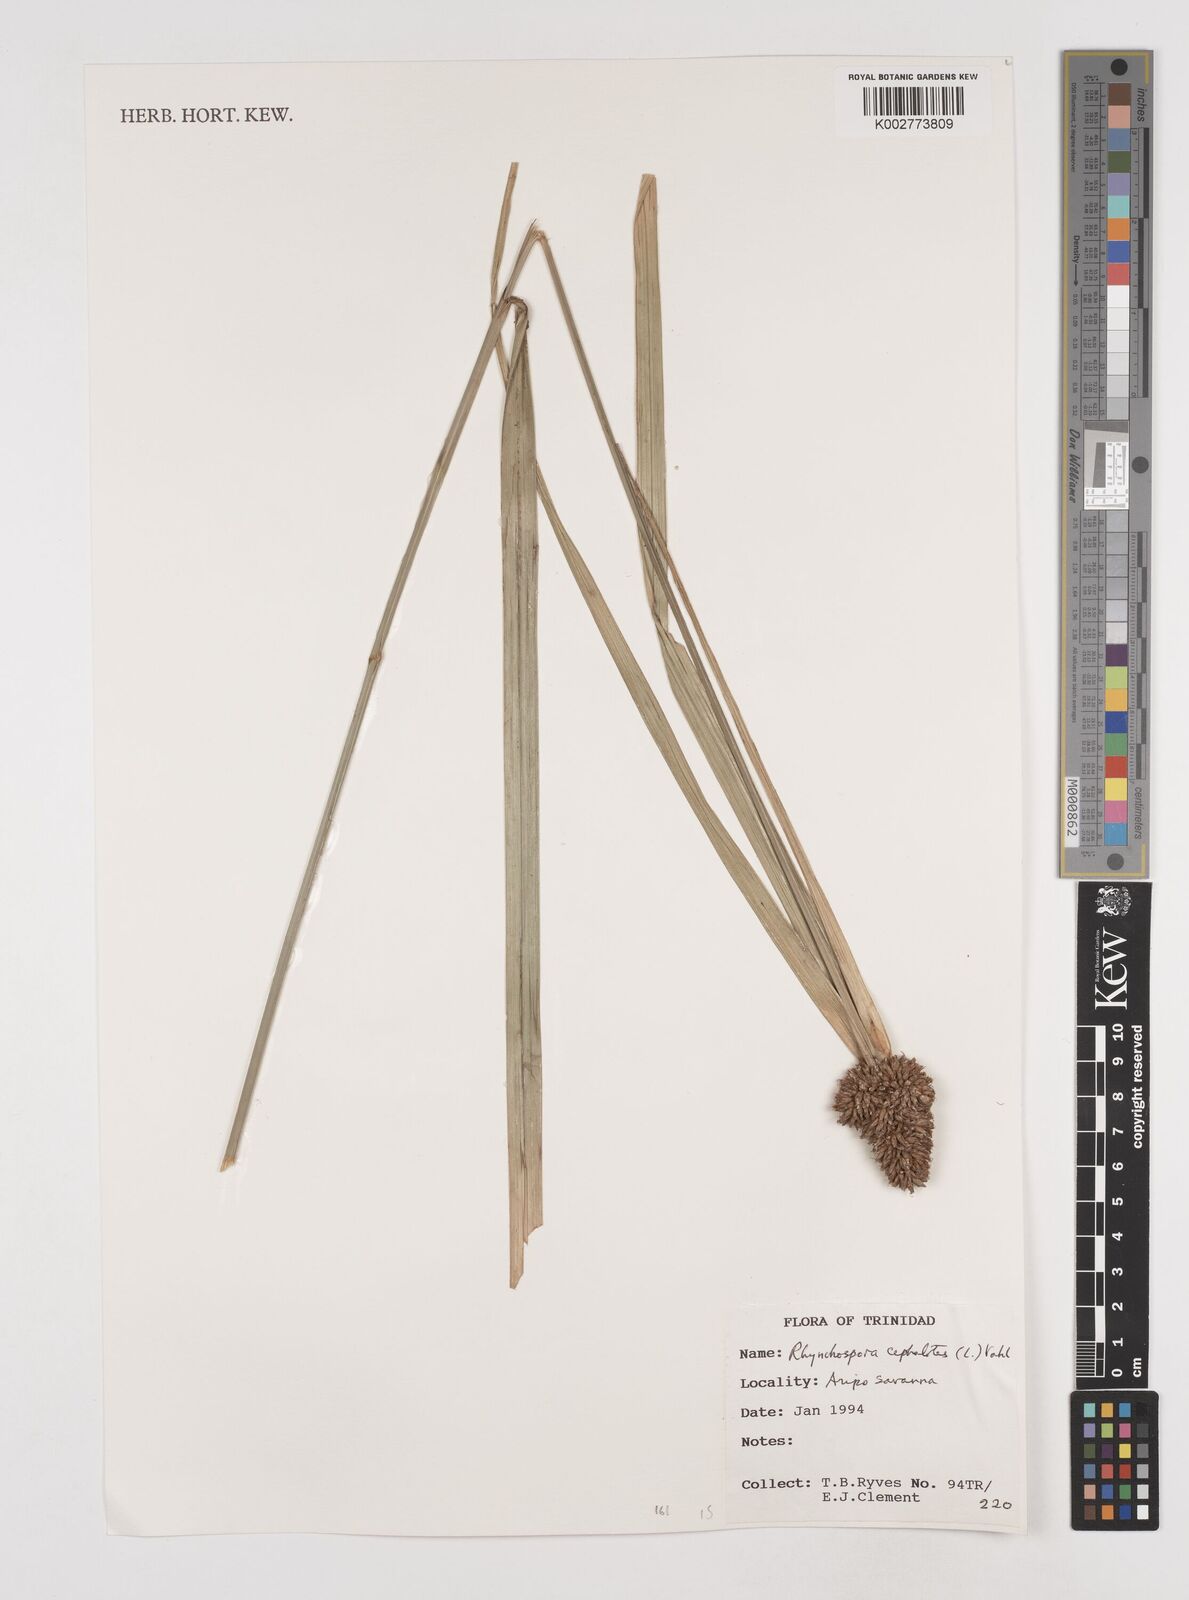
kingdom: Plantae
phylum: Tracheophyta
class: Liliopsida
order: Poales
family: Cyperaceae
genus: Rhynchospora
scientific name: Rhynchospora cephalotes
